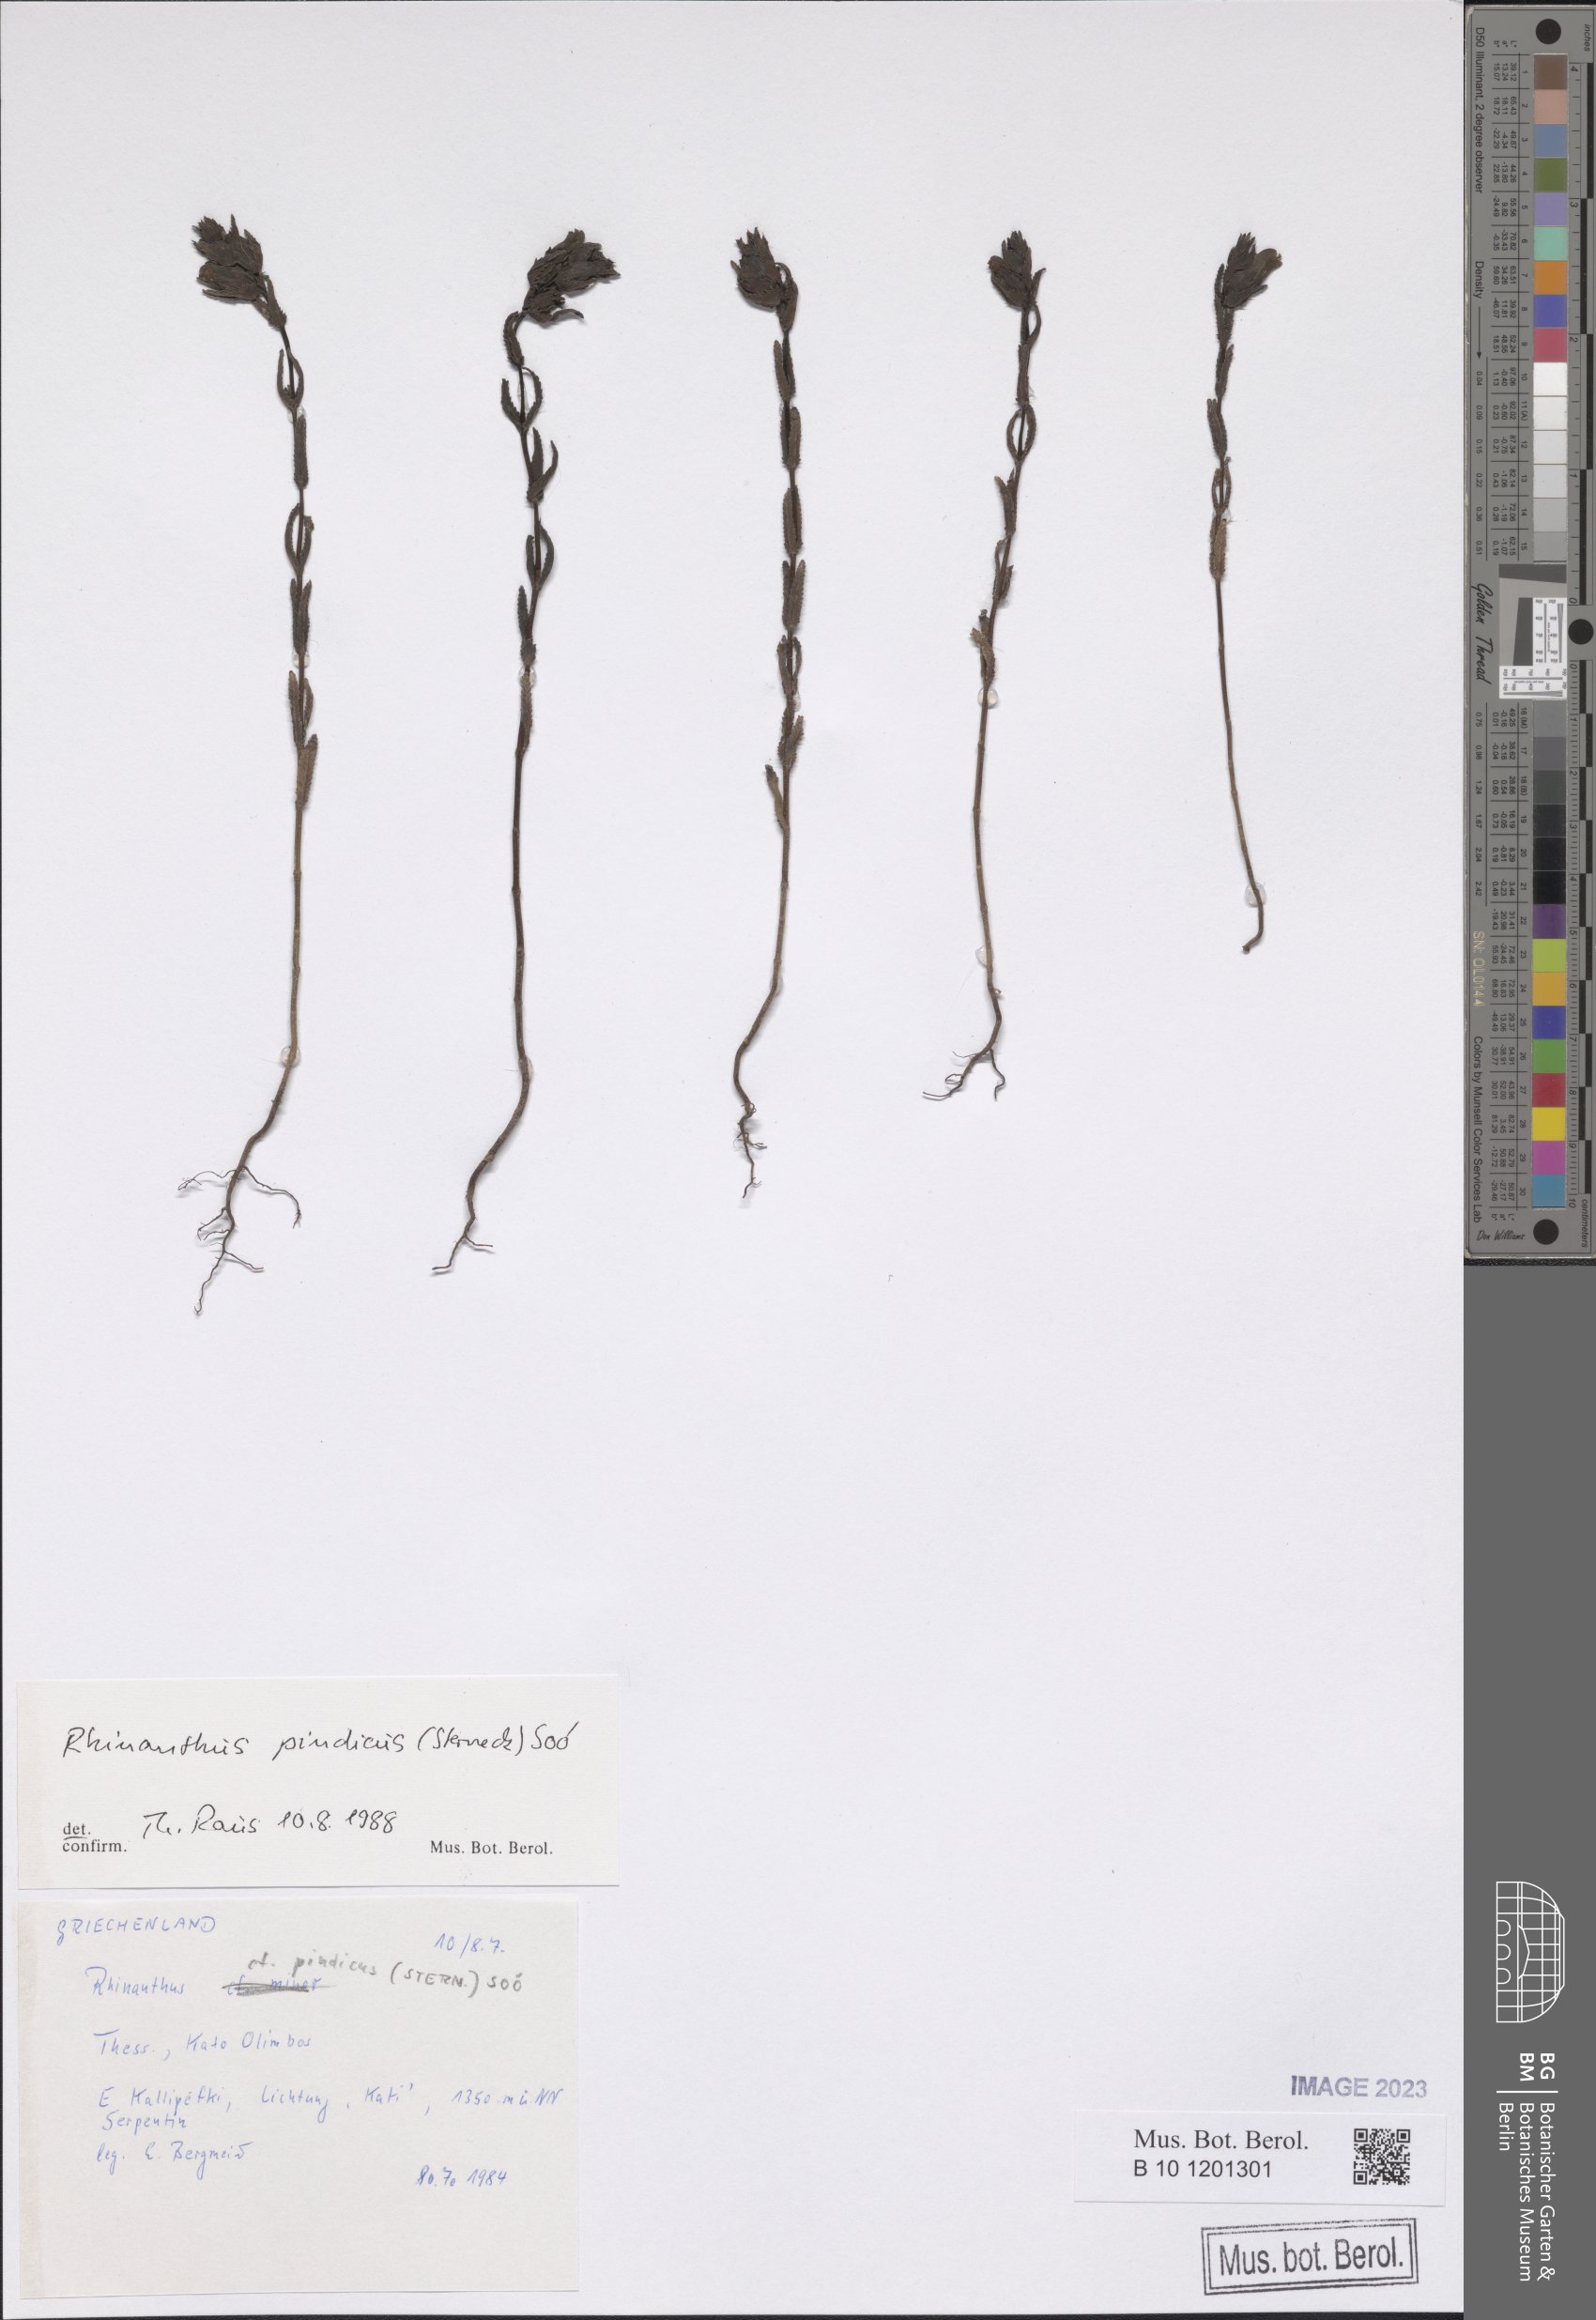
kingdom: Plantae
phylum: Tracheophyta
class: Magnoliopsida
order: Lamiales
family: Orobanchaceae
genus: Rhinanthus
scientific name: Rhinanthus pindicus
